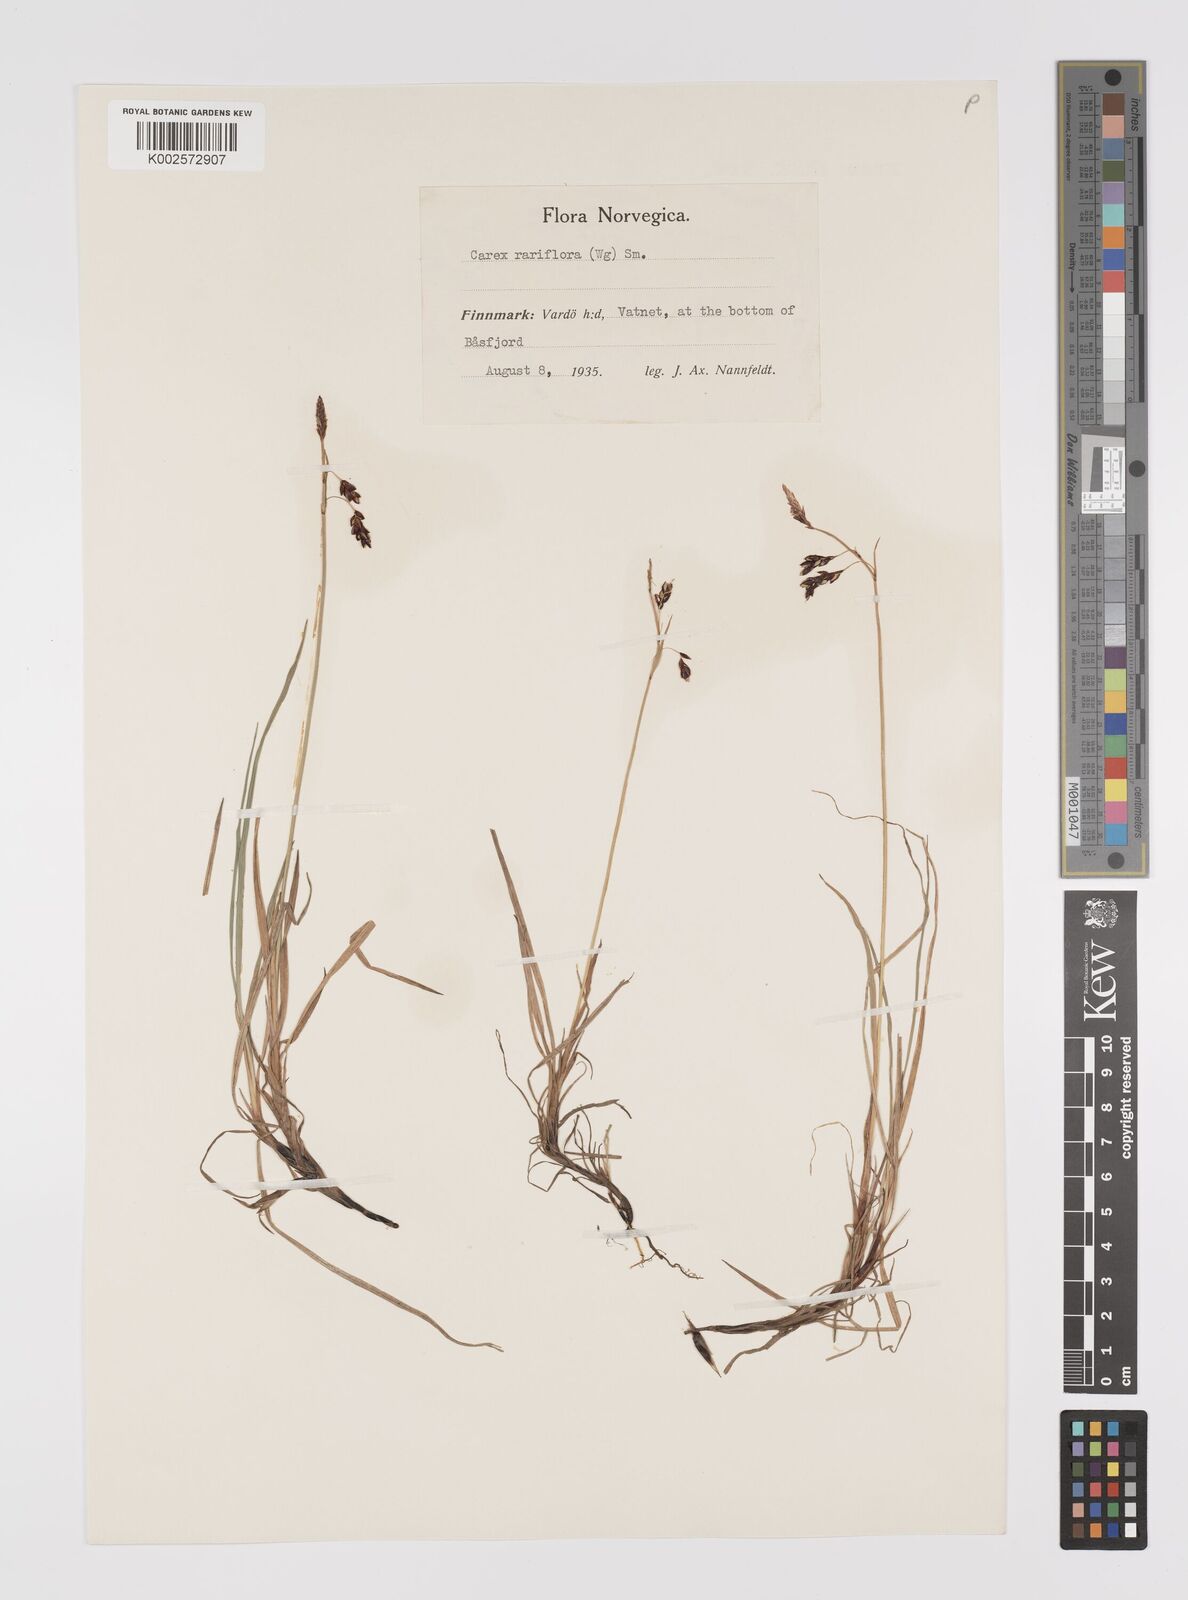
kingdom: Plantae
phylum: Tracheophyta
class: Liliopsida
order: Poales
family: Cyperaceae
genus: Carex
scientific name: Carex rariflora
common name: Loose-flowered alpine sedge
